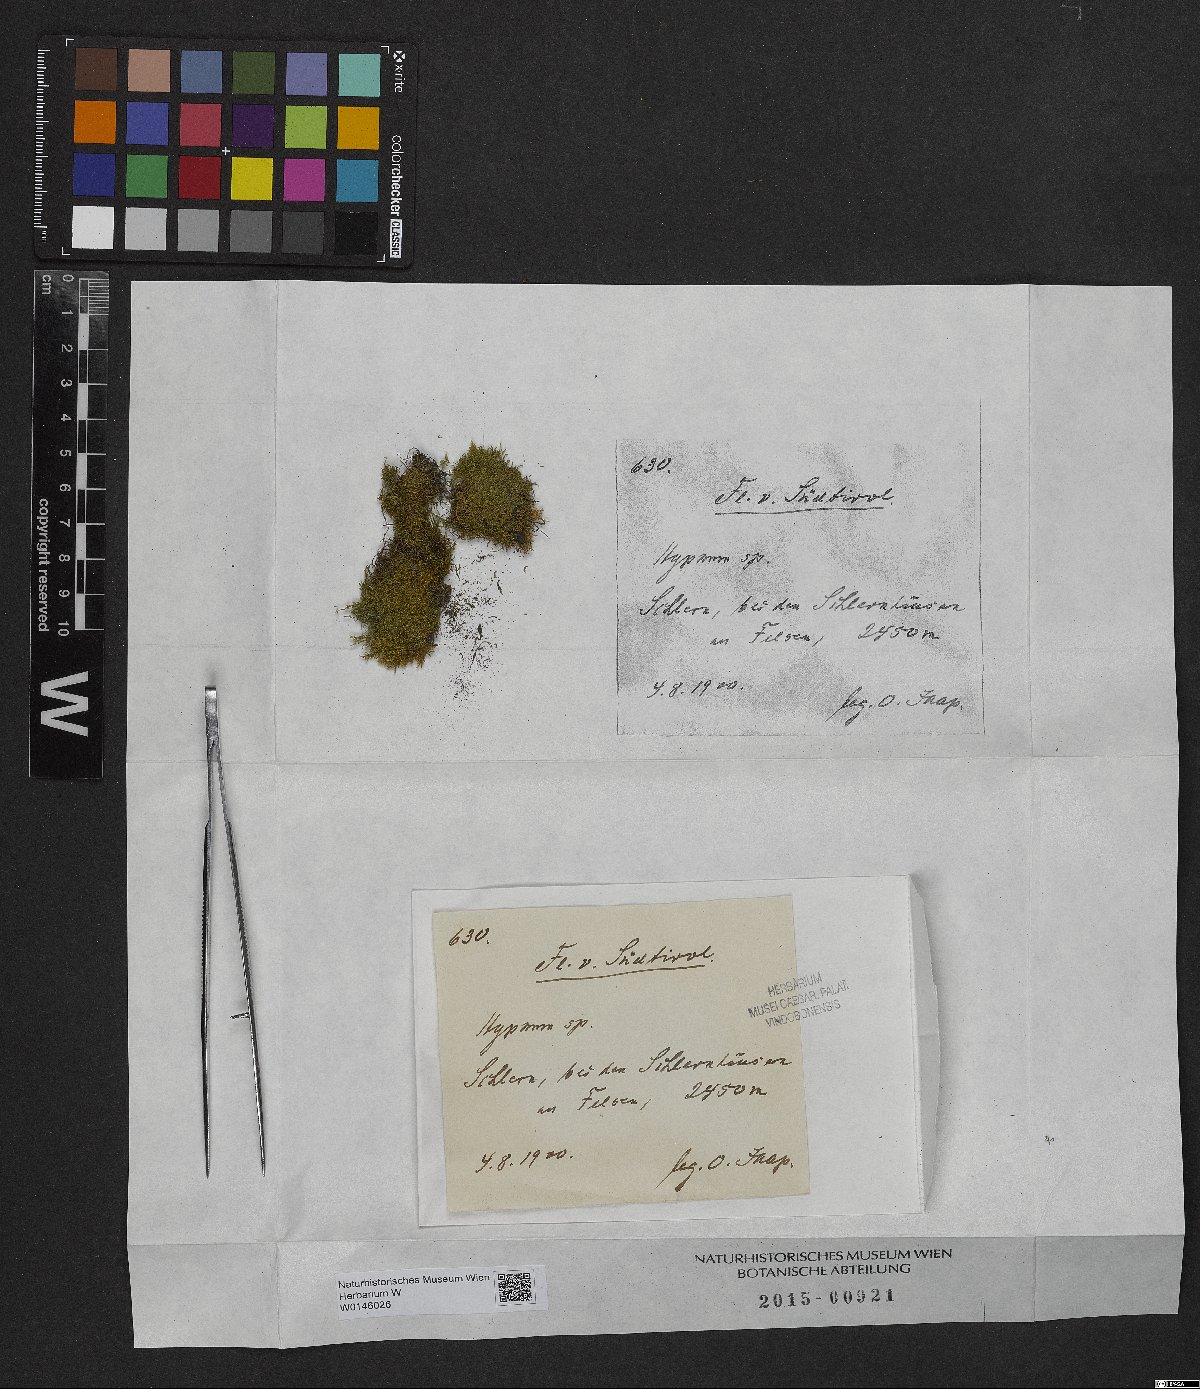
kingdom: Plantae
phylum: Bryophyta
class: Bryopsida
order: Hypnales
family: Hypnaceae
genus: Hypnum
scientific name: Hypnum
